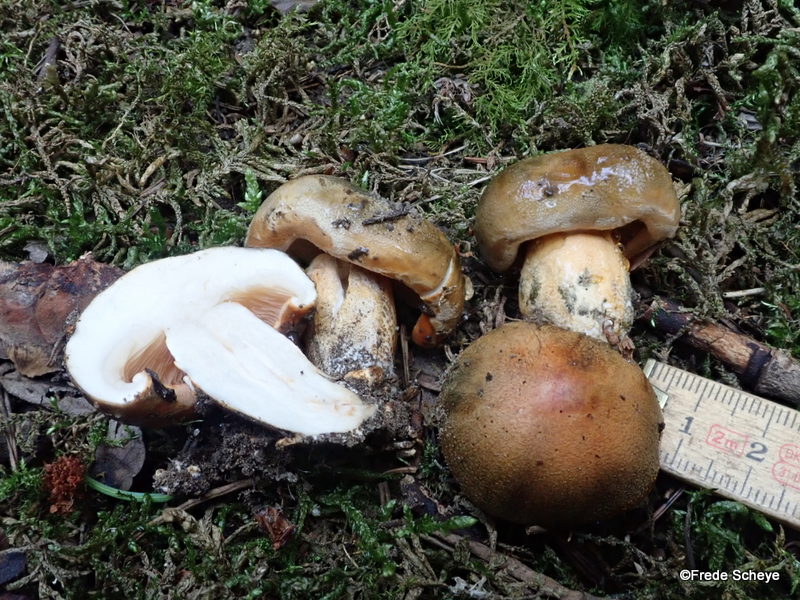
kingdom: Fungi
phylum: Basidiomycota
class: Agaricomycetes
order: Agaricales
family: Tricholomataceae
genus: Tricholoma
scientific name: Tricholoma aurantium
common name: orangegul ridderhat
